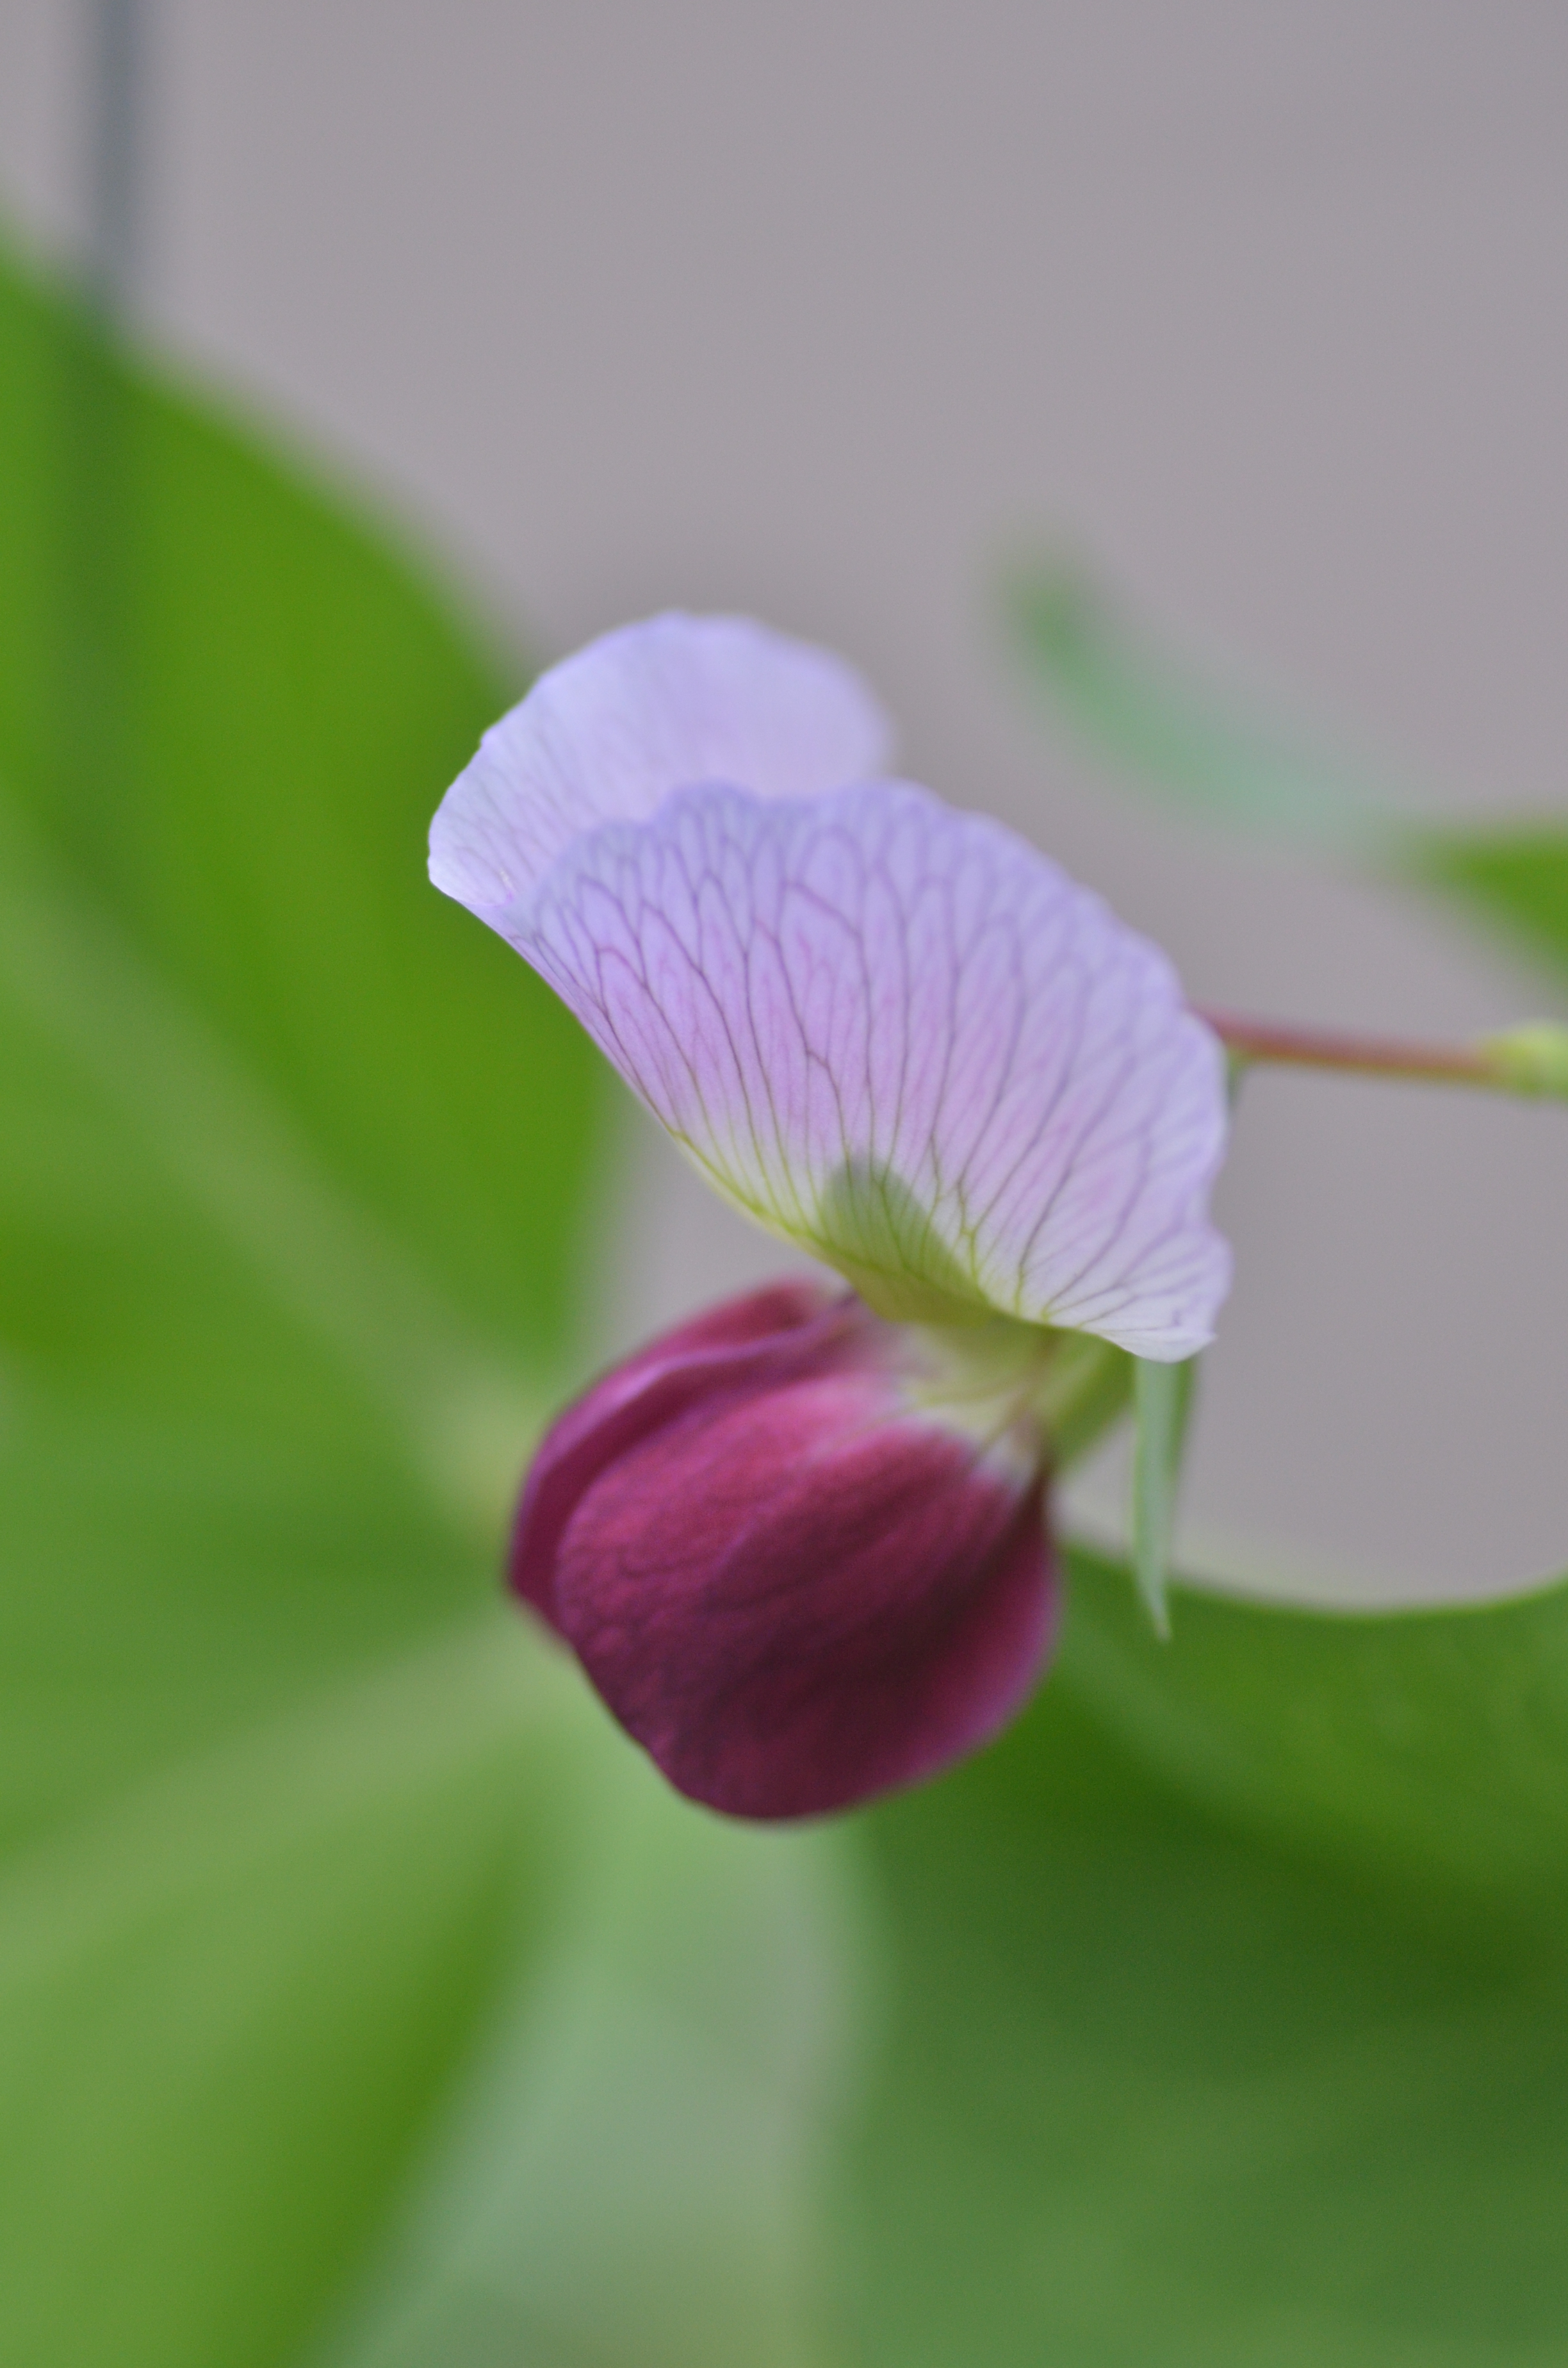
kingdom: Plantae
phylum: Tracheophyta
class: Magnoliopsida
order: Fabales
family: Fabaceae
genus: Lathyrus
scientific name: Lathyrus oleraceus
